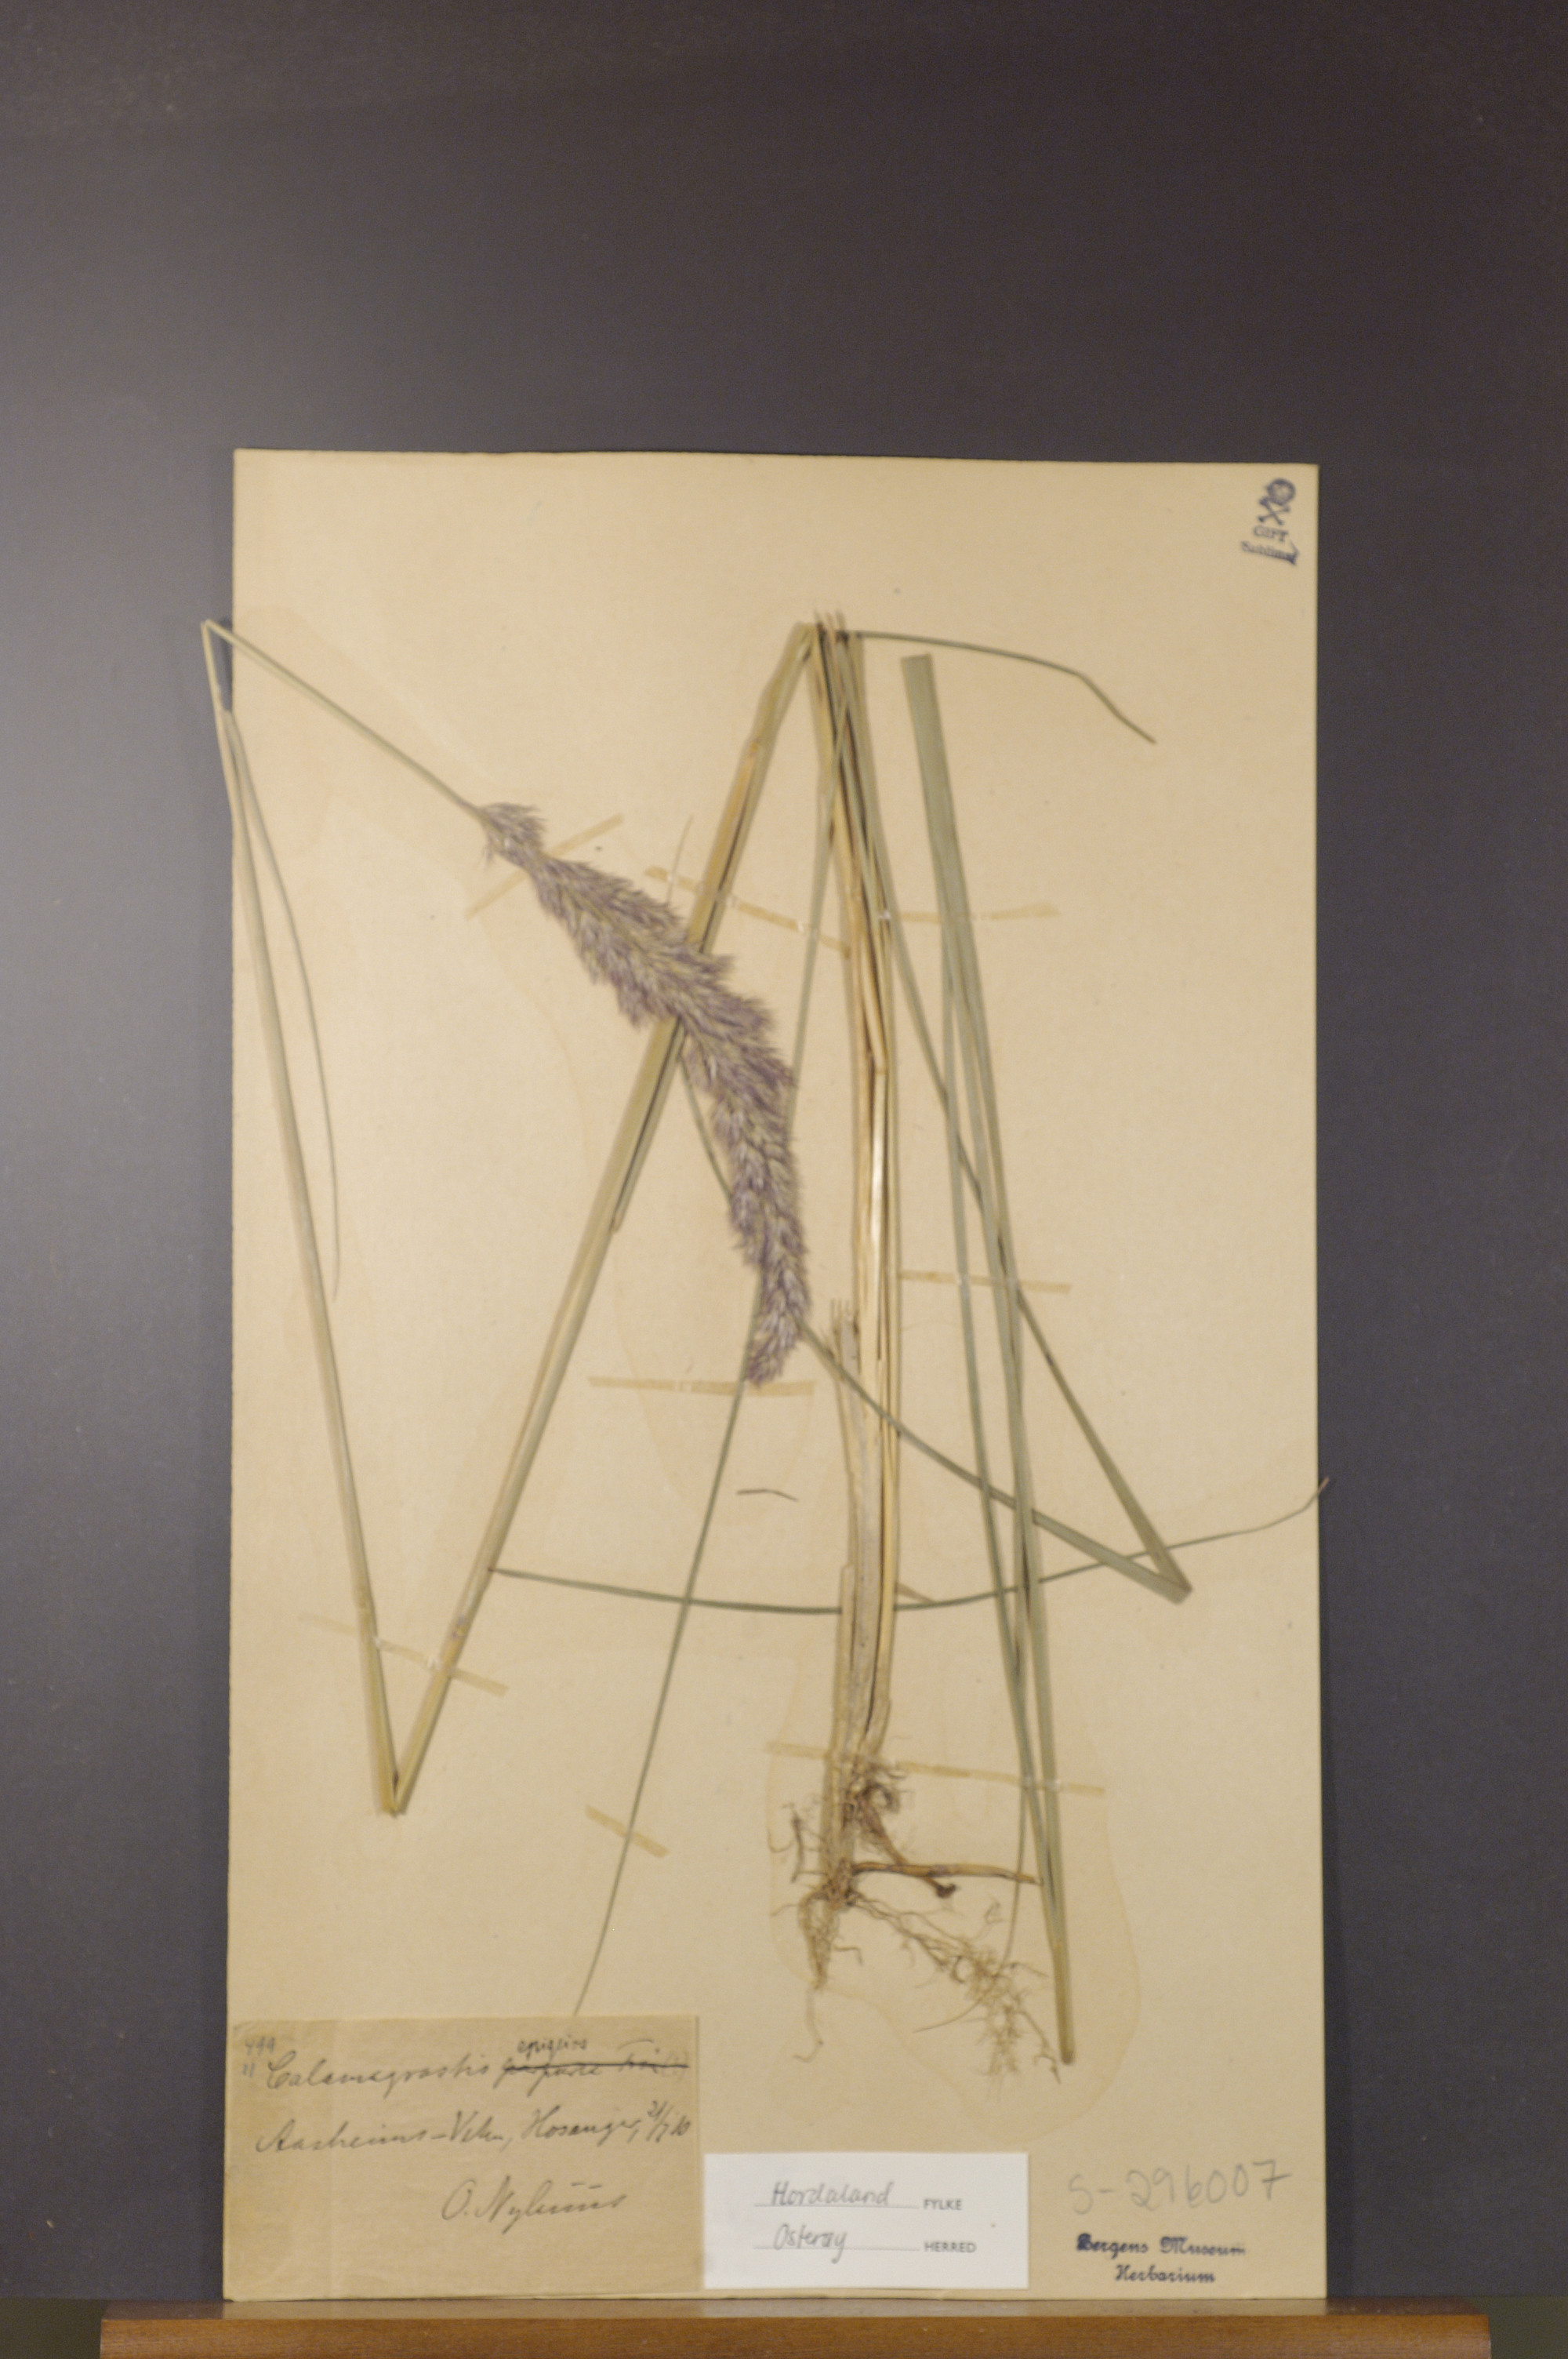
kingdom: Plantae
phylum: Tracheophyta
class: Liliopsida
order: Poales
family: Poaceae
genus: Calamagrostis
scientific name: Calamagrostis epigejos
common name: Wood small-reed
